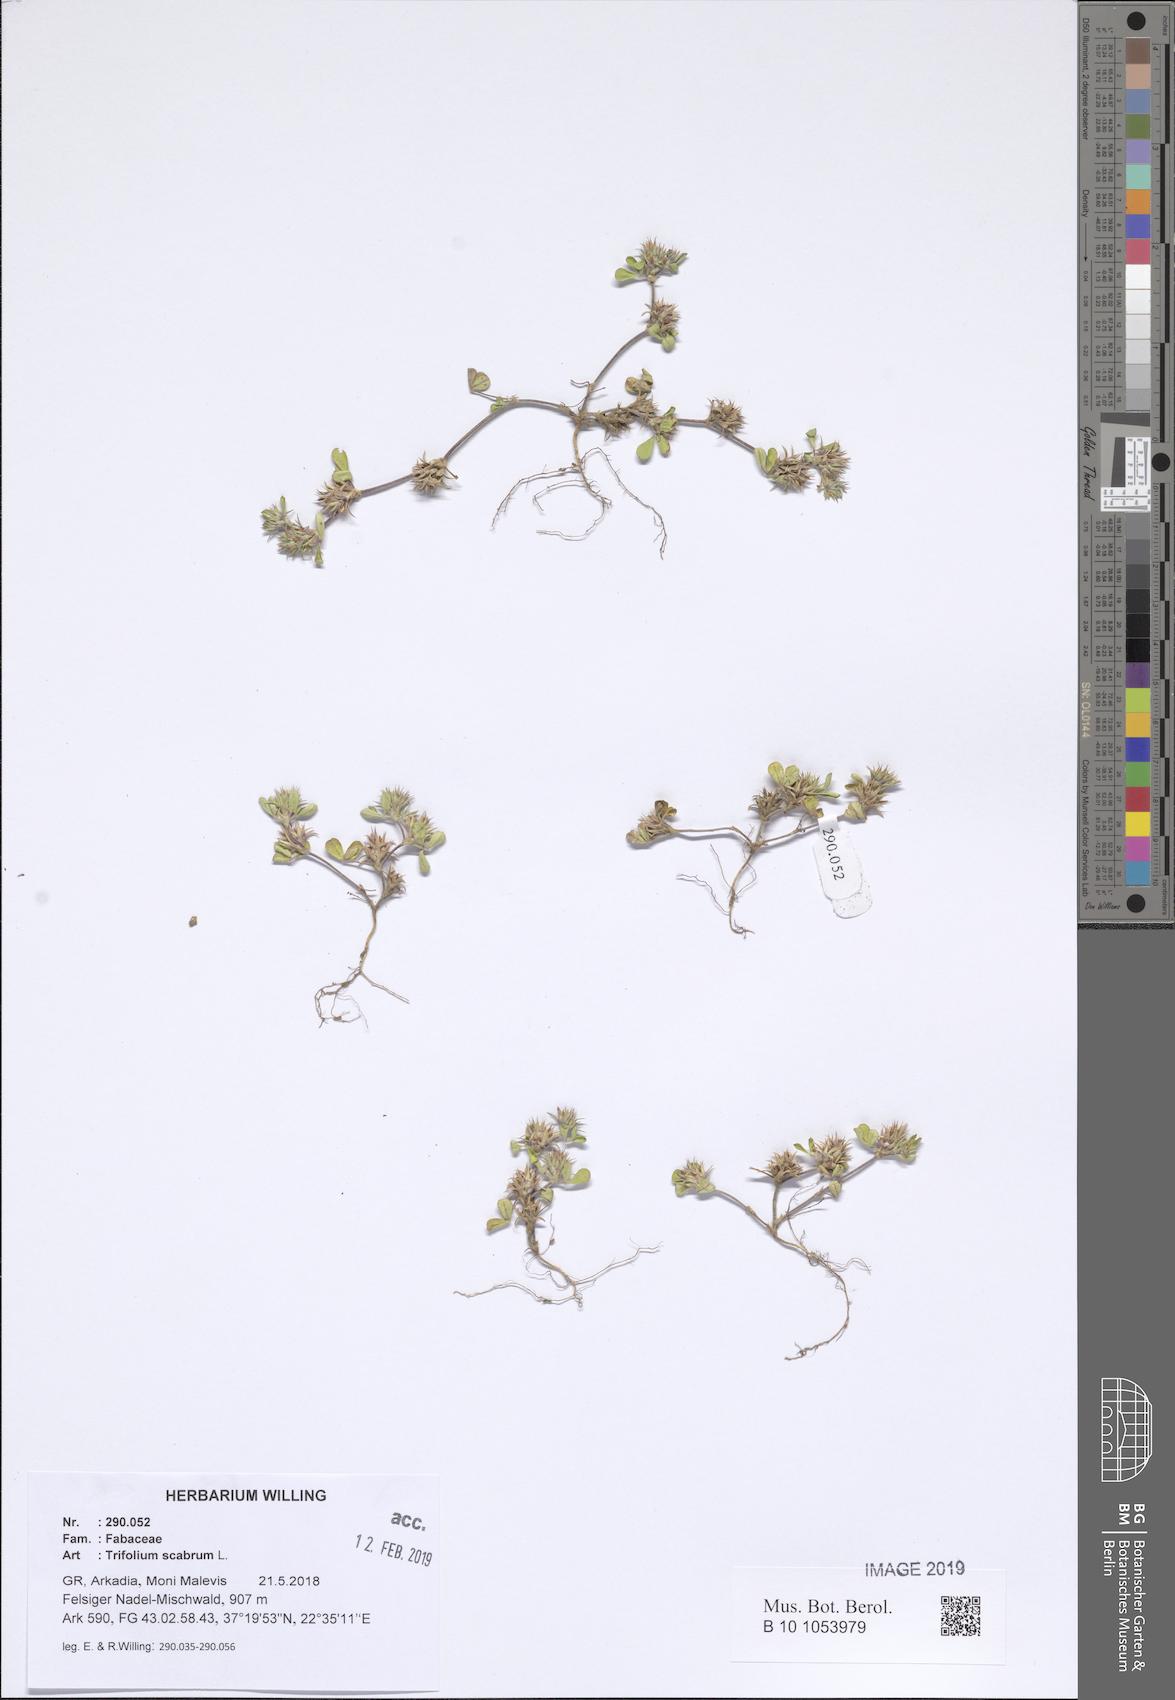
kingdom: Plantae
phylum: Tracheophyta
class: Magnoliopsida
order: Fabales
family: Fabaceae
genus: Trifolium
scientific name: Trifolium scabrum
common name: Rough clover
